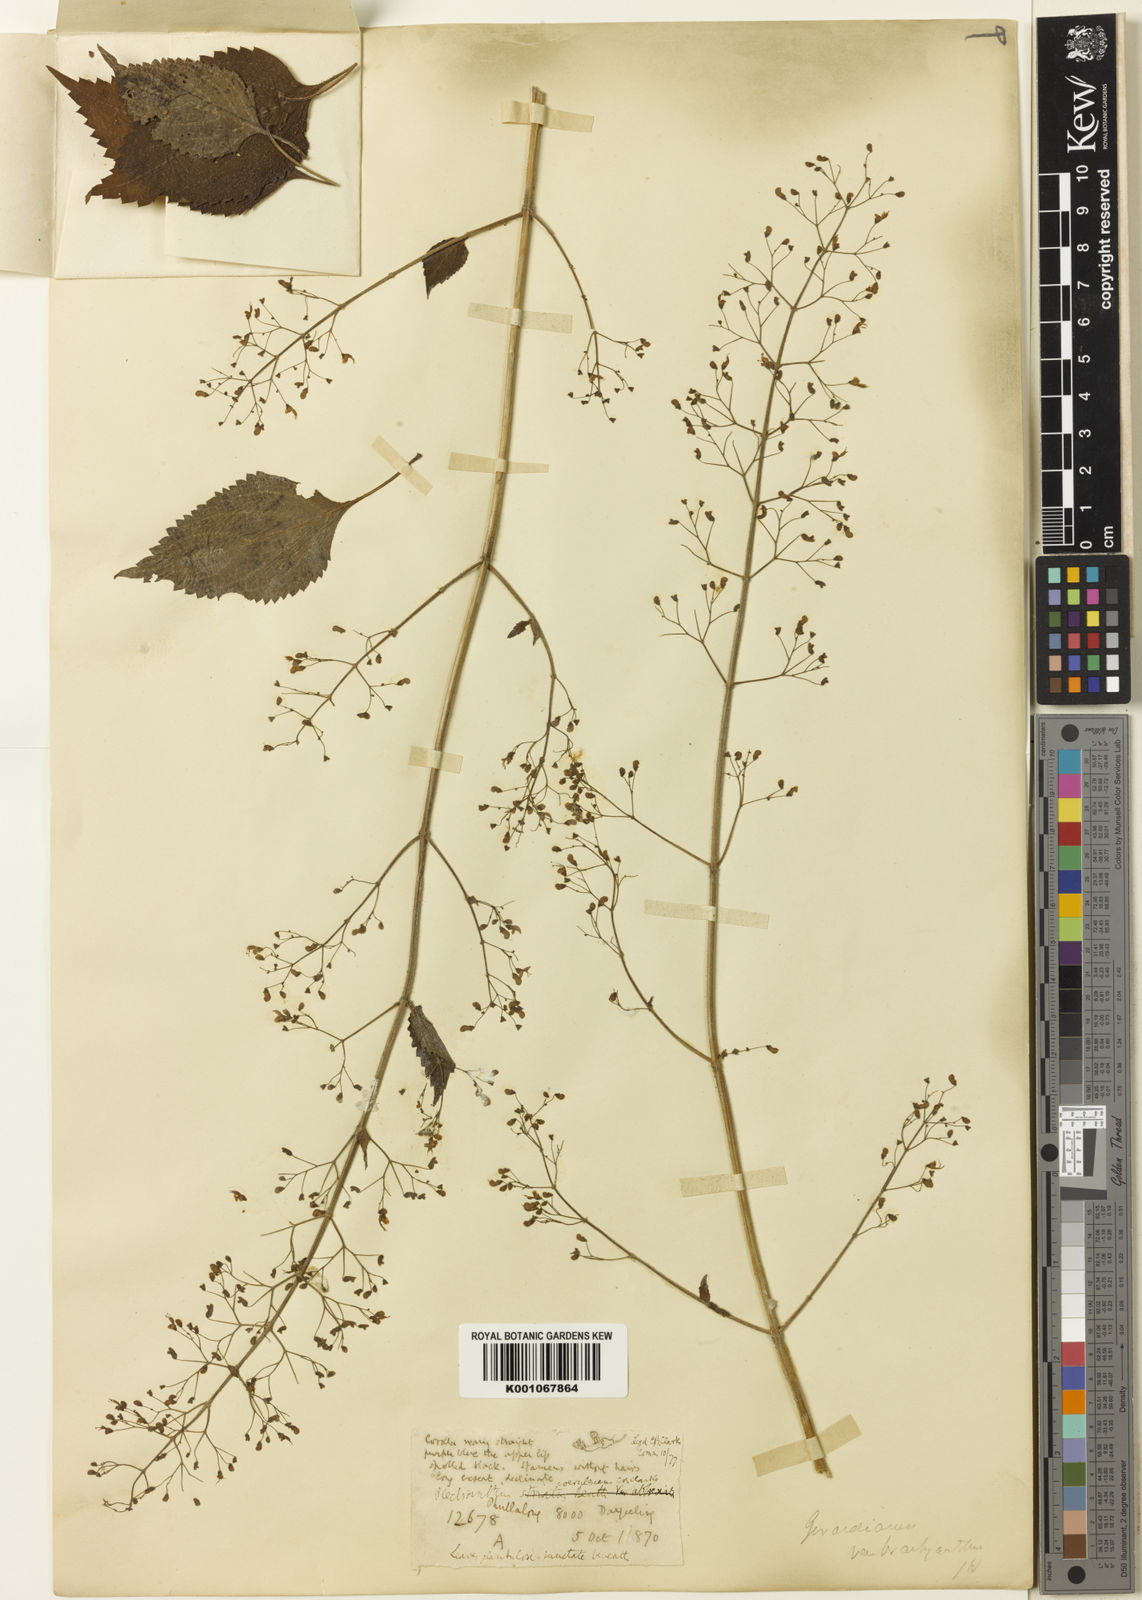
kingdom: Plantae
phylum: Tracheophyta
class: Magnoliopsida
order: Lamiales
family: Lamiaceae
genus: Isodon
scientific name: Isodon lophanthoides
